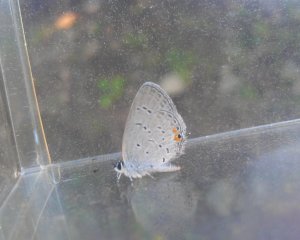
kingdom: Animalia
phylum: Arthropoda
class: Insecta
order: Lepidoptera
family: Lycaenidae
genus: Elkalyce
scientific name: Elkalyce comyntas
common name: Eastern Tailed-Blue
